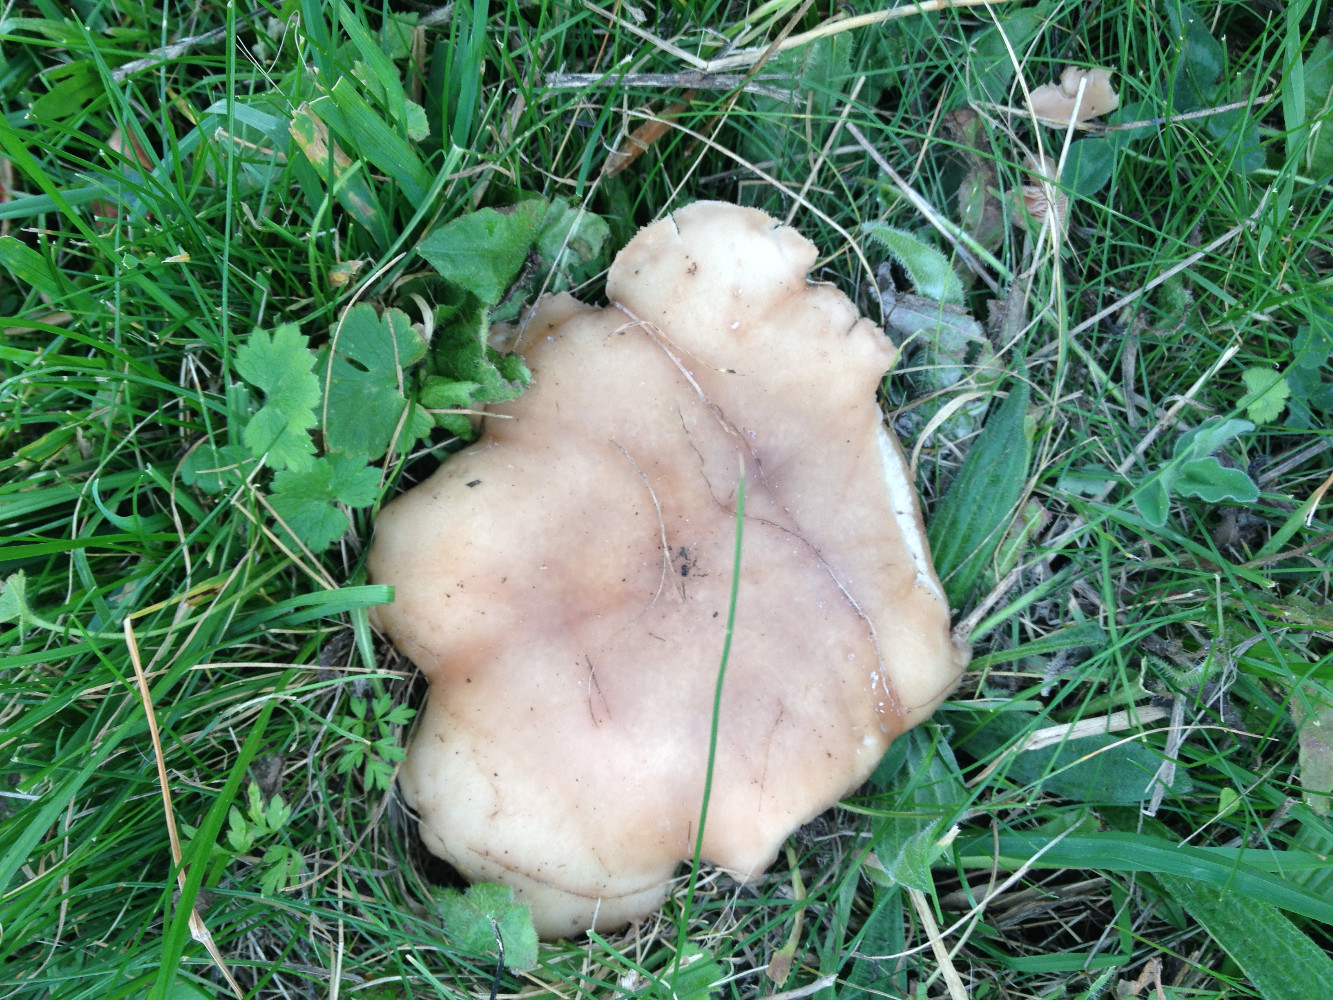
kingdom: Fungi
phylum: Basidiomycota
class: Agaricomycetes
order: Agaricales
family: Tricholomataceae
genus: Lepista
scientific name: Lepista personata
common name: bleg hekseringshat
